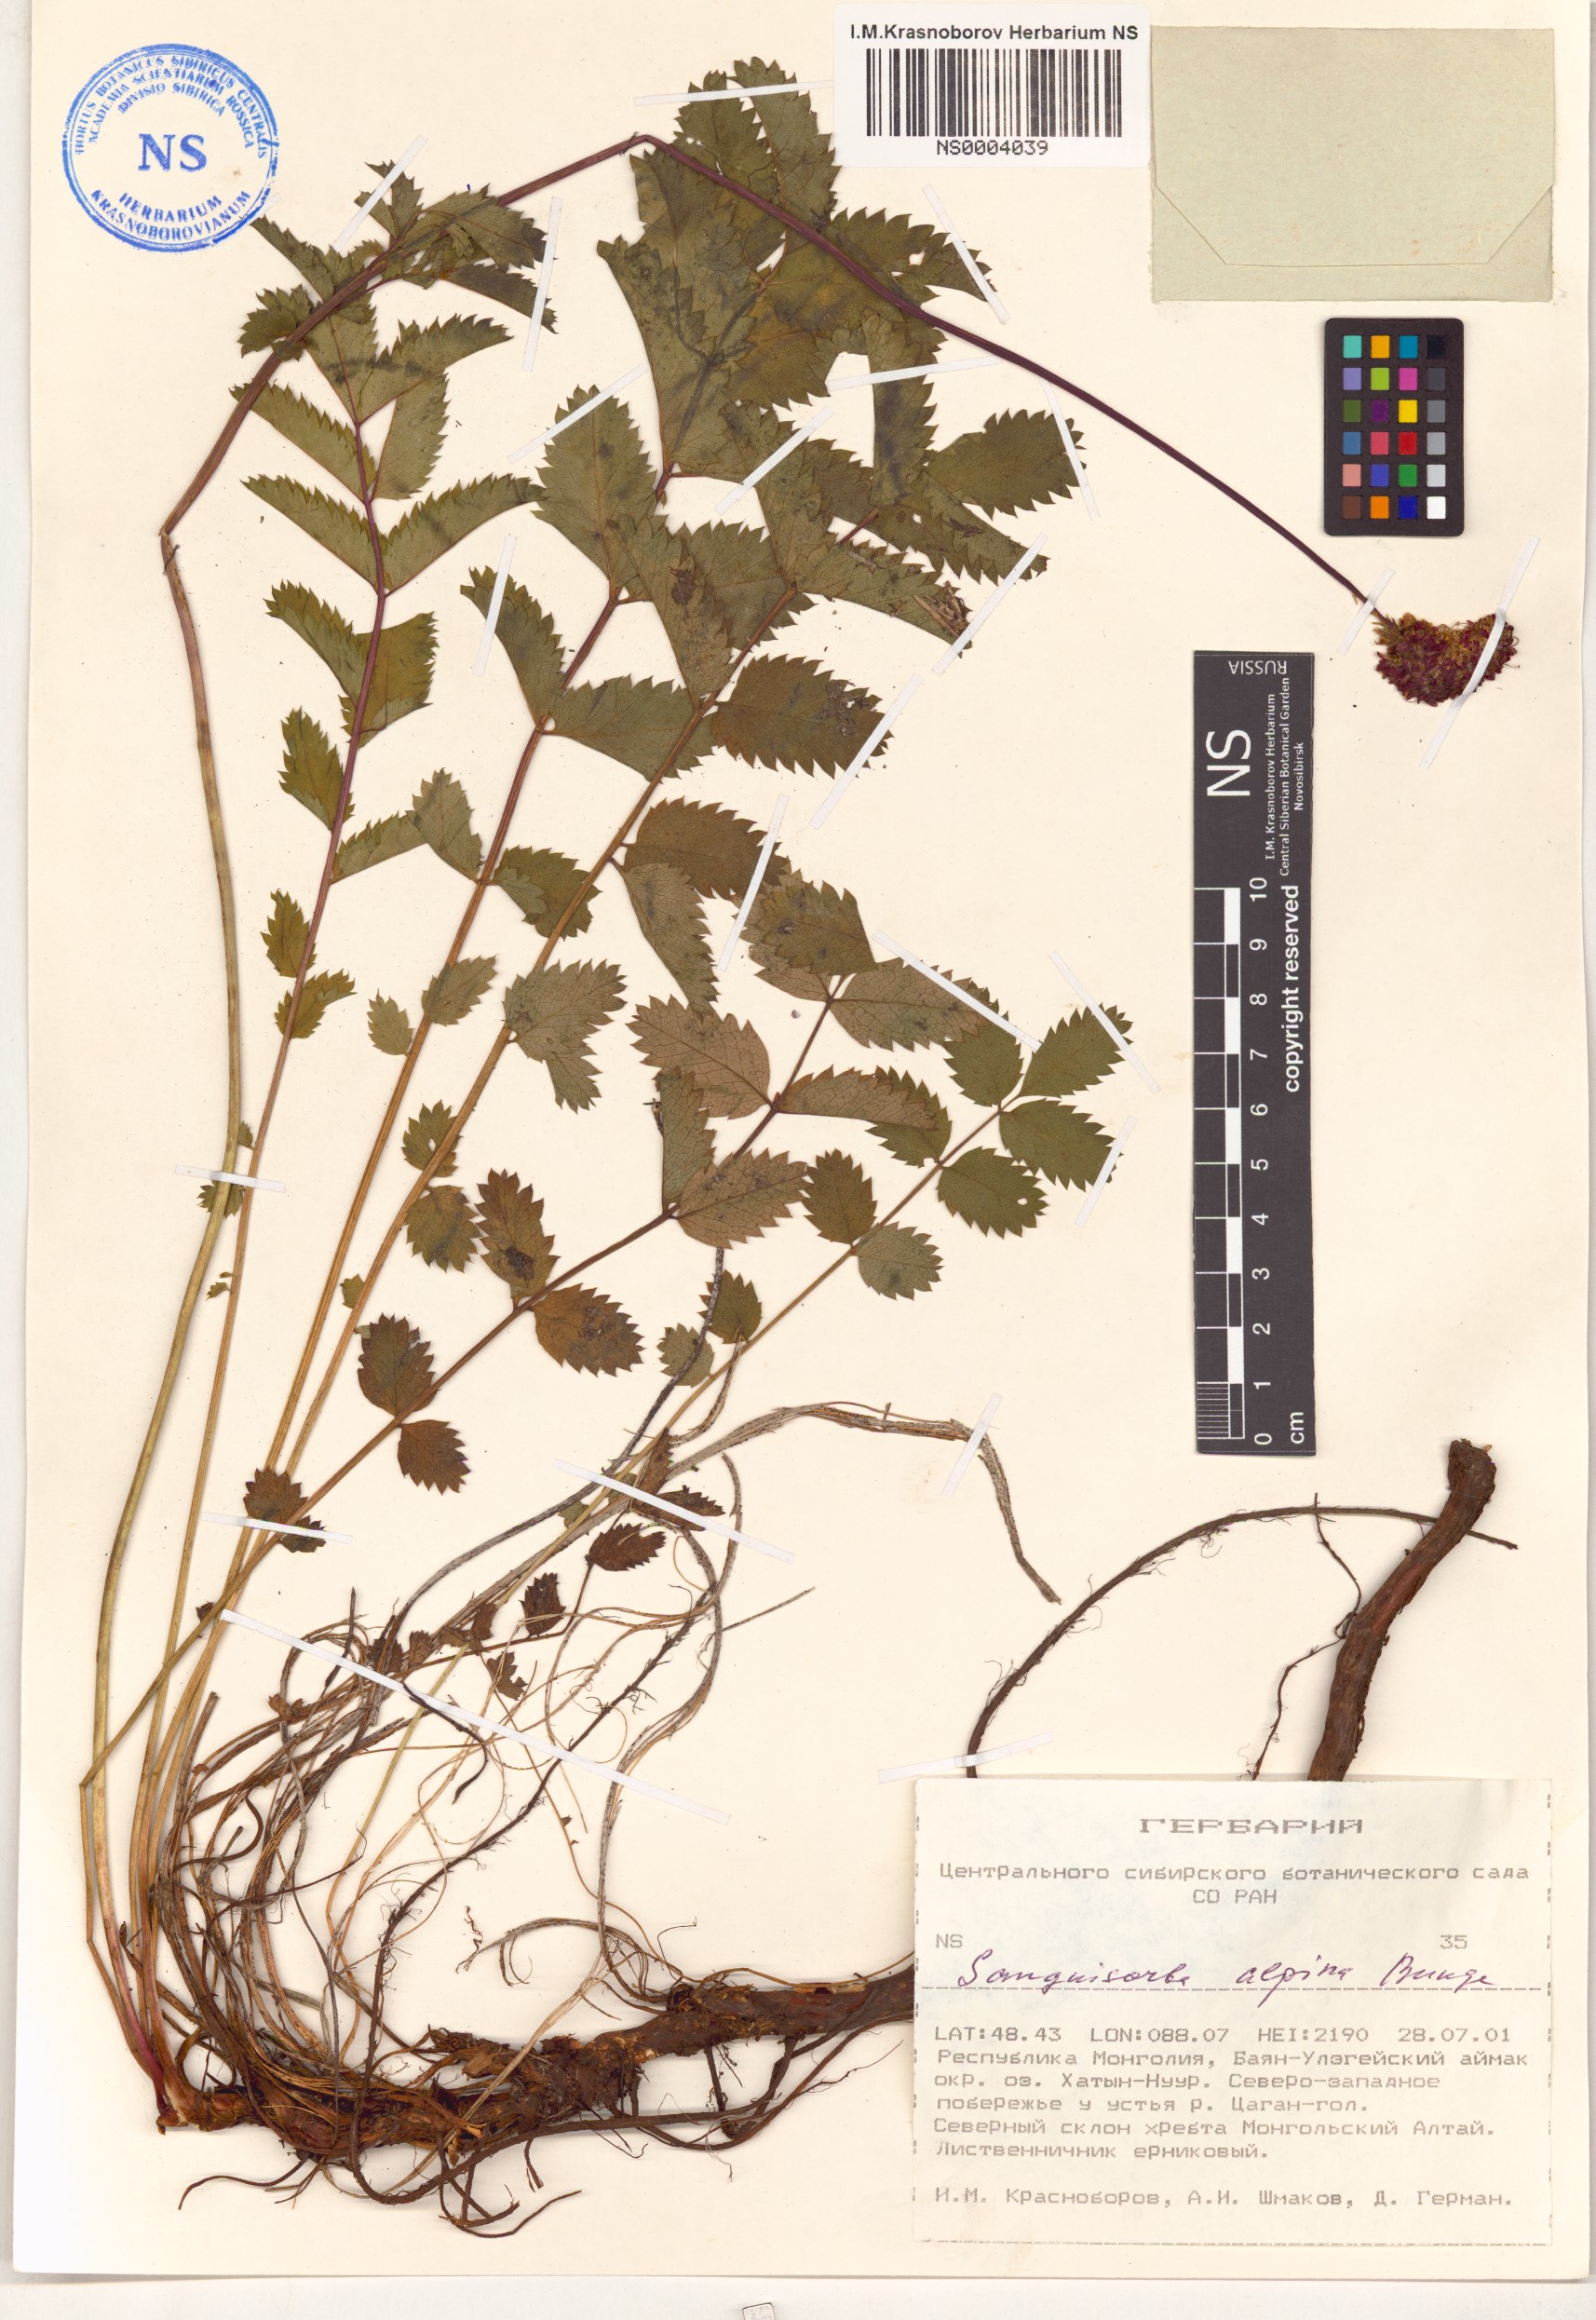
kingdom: Plantae
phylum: Tracheophyta
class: Magnoliopsida
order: Rosales
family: Rosaceae
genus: Sanguisorba
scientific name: Sanguisorba alpina
